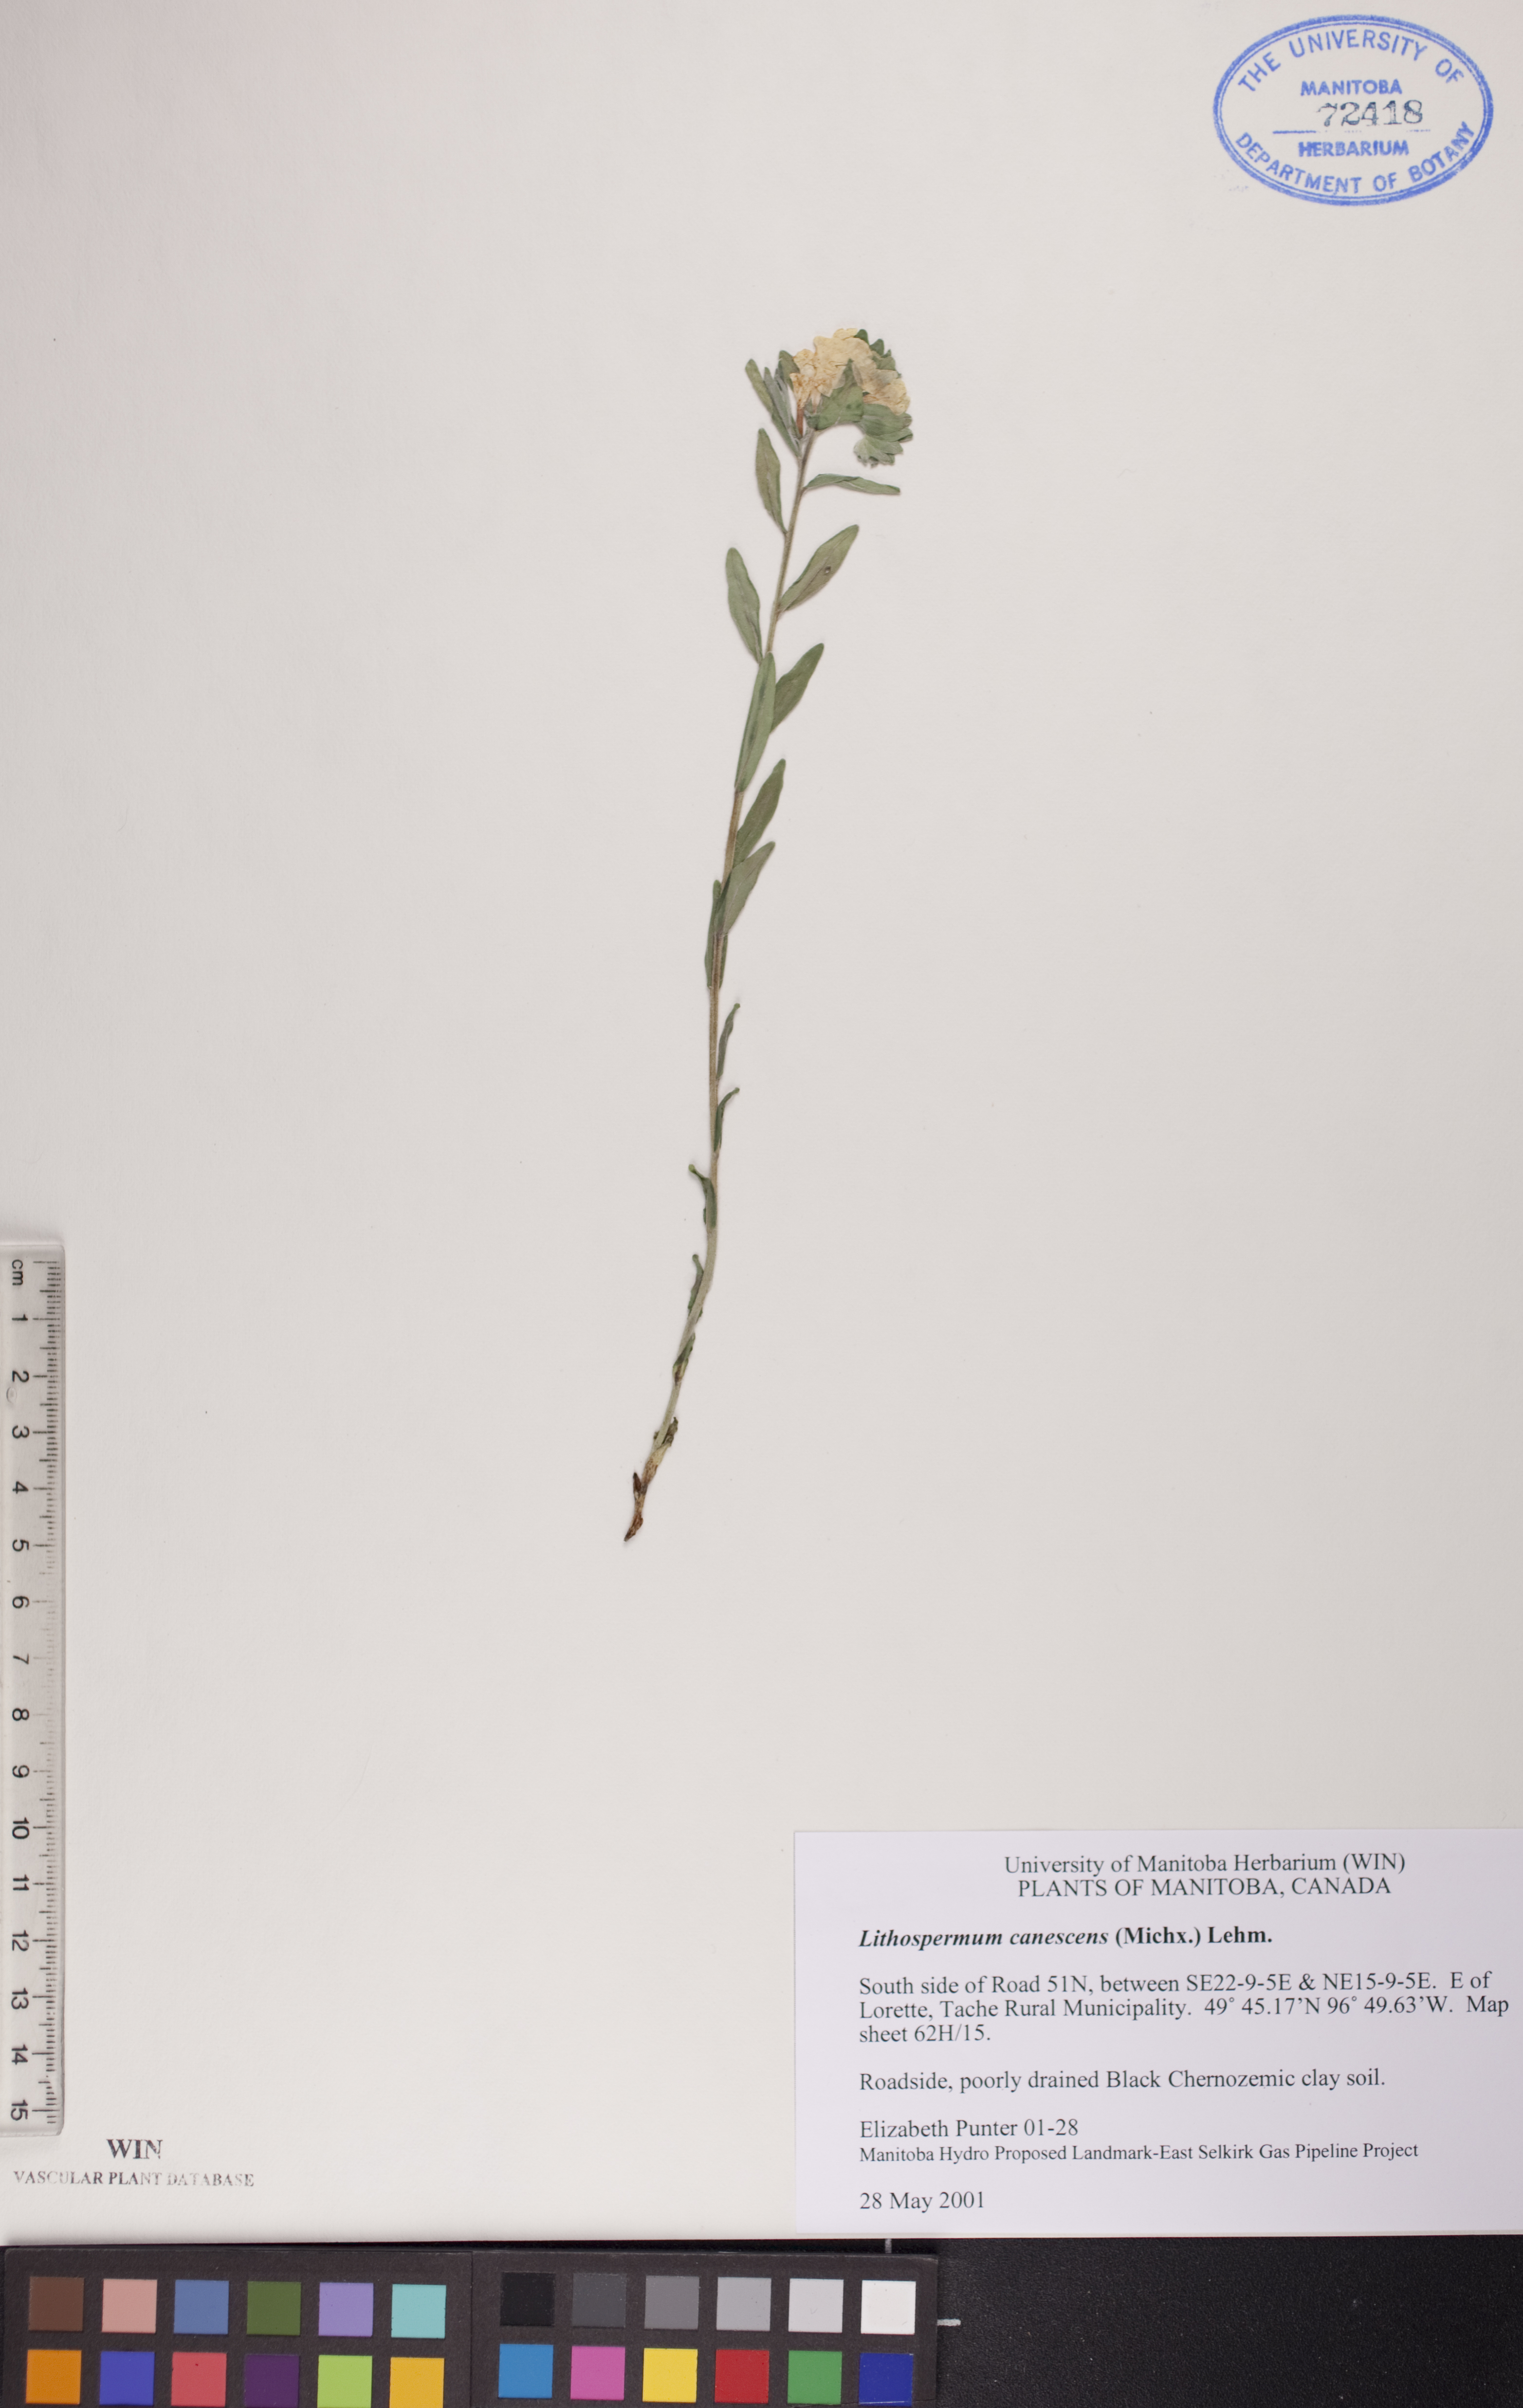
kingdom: Plantae
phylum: Tracheophyta
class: Magnoliopsida
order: Boraginales
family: Boraginaceae
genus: Lithospermum
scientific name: Lithospermum canescens
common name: Hoary puccoon
